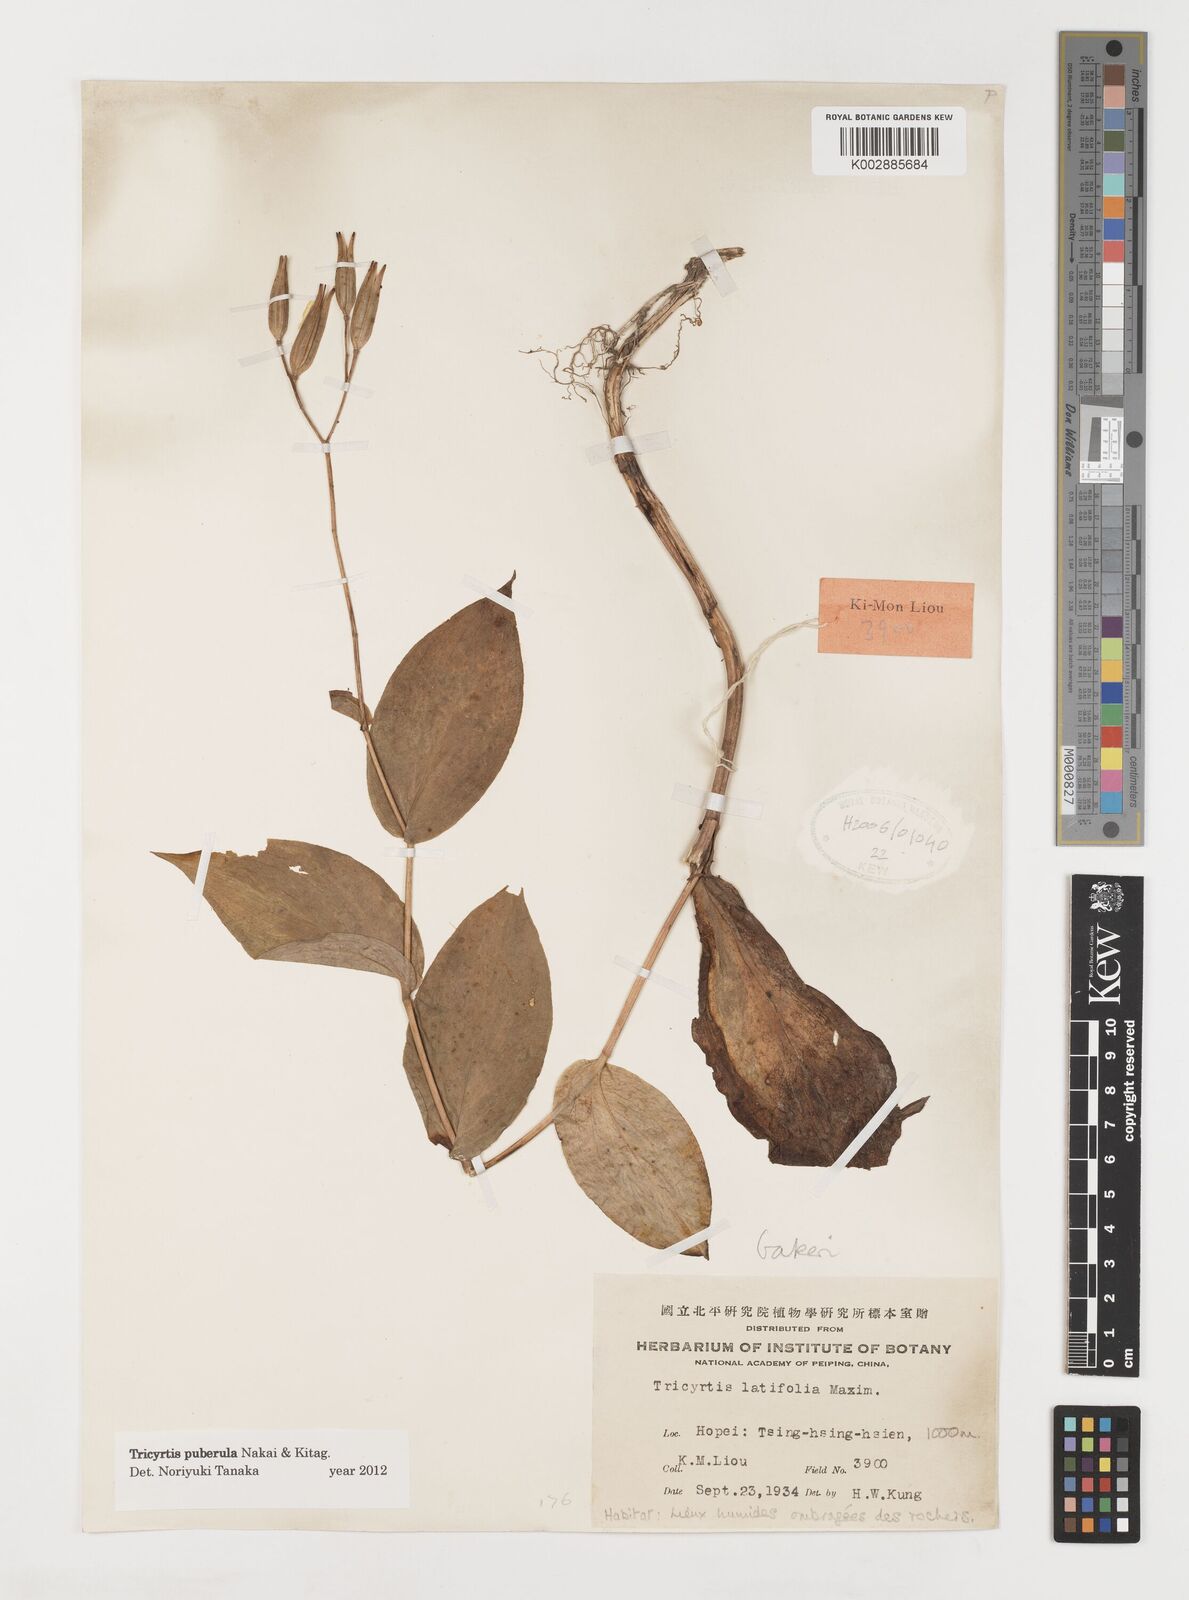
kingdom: Plantae
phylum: Tracheophyta
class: Liliopsida
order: Liliales
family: Liliaceae
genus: Tricyrtis
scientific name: Tricyrtis puberula
